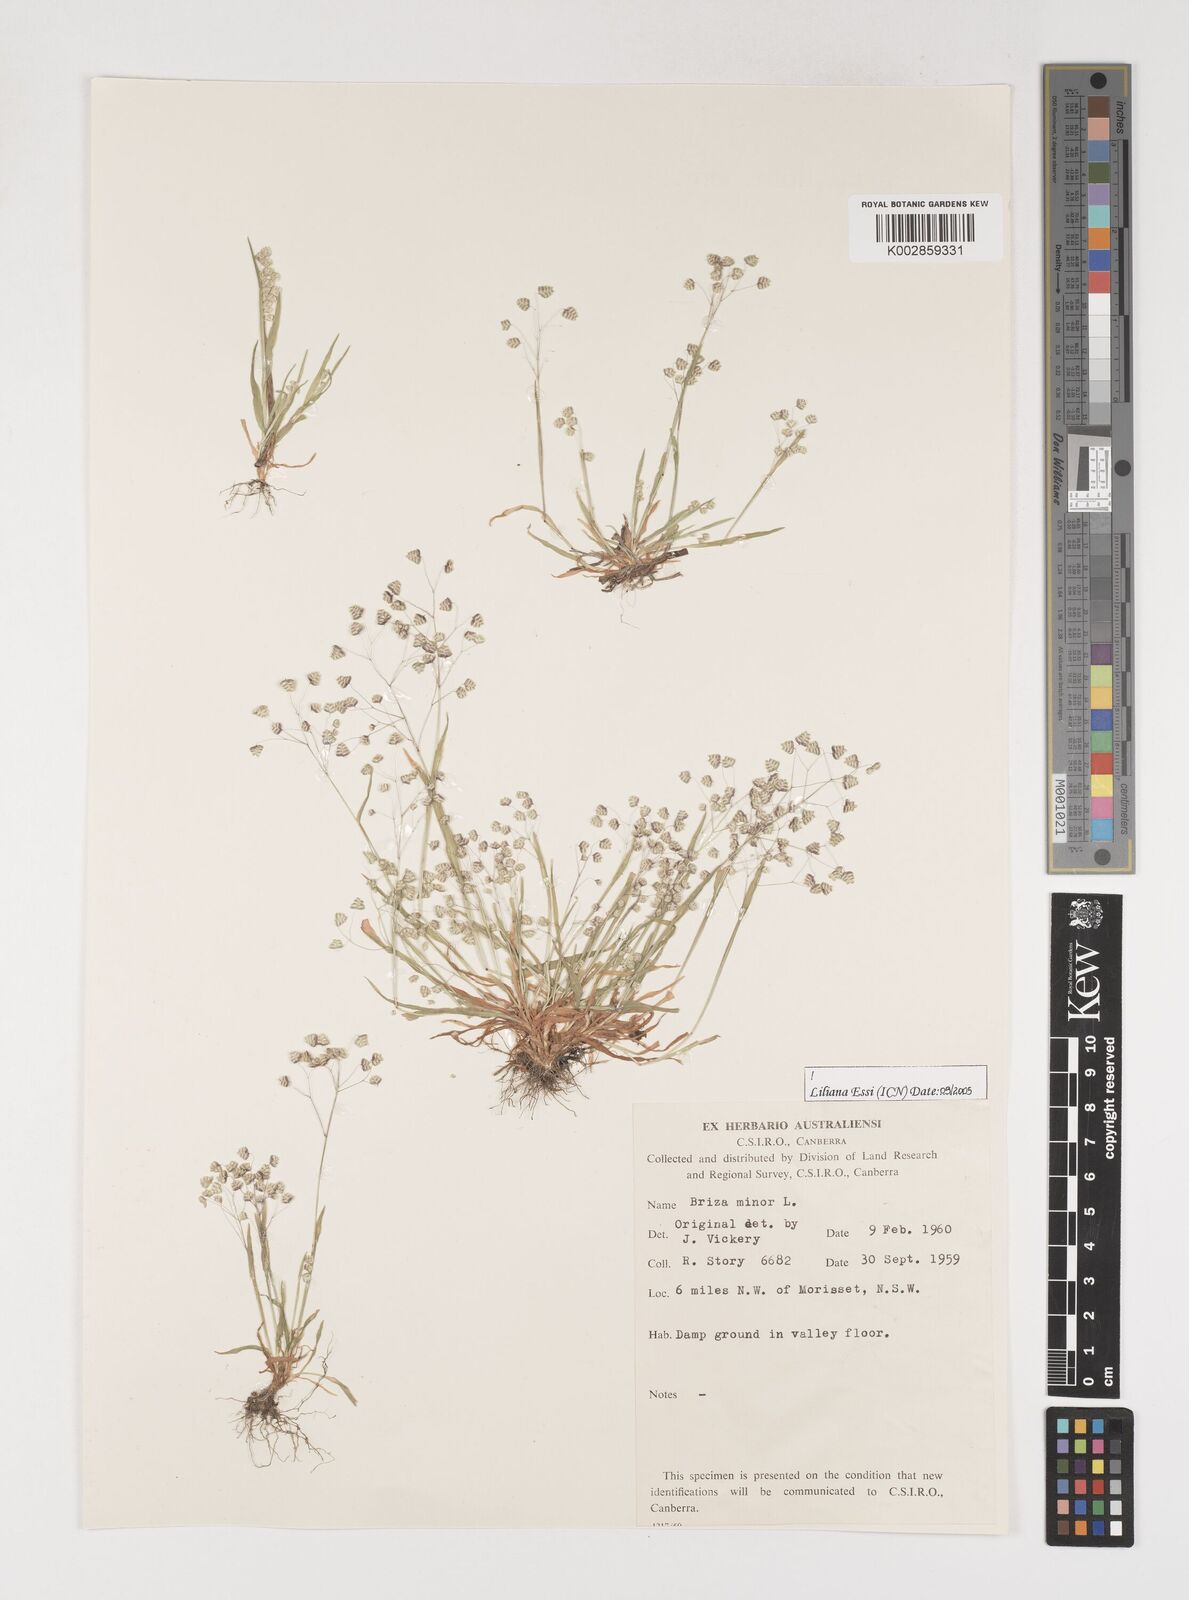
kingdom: Plantae
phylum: Tracheophyta
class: Liliopsida
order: Poales
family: Poaceae
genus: Briza
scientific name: Briza minor
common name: Lesser quaking-grass
